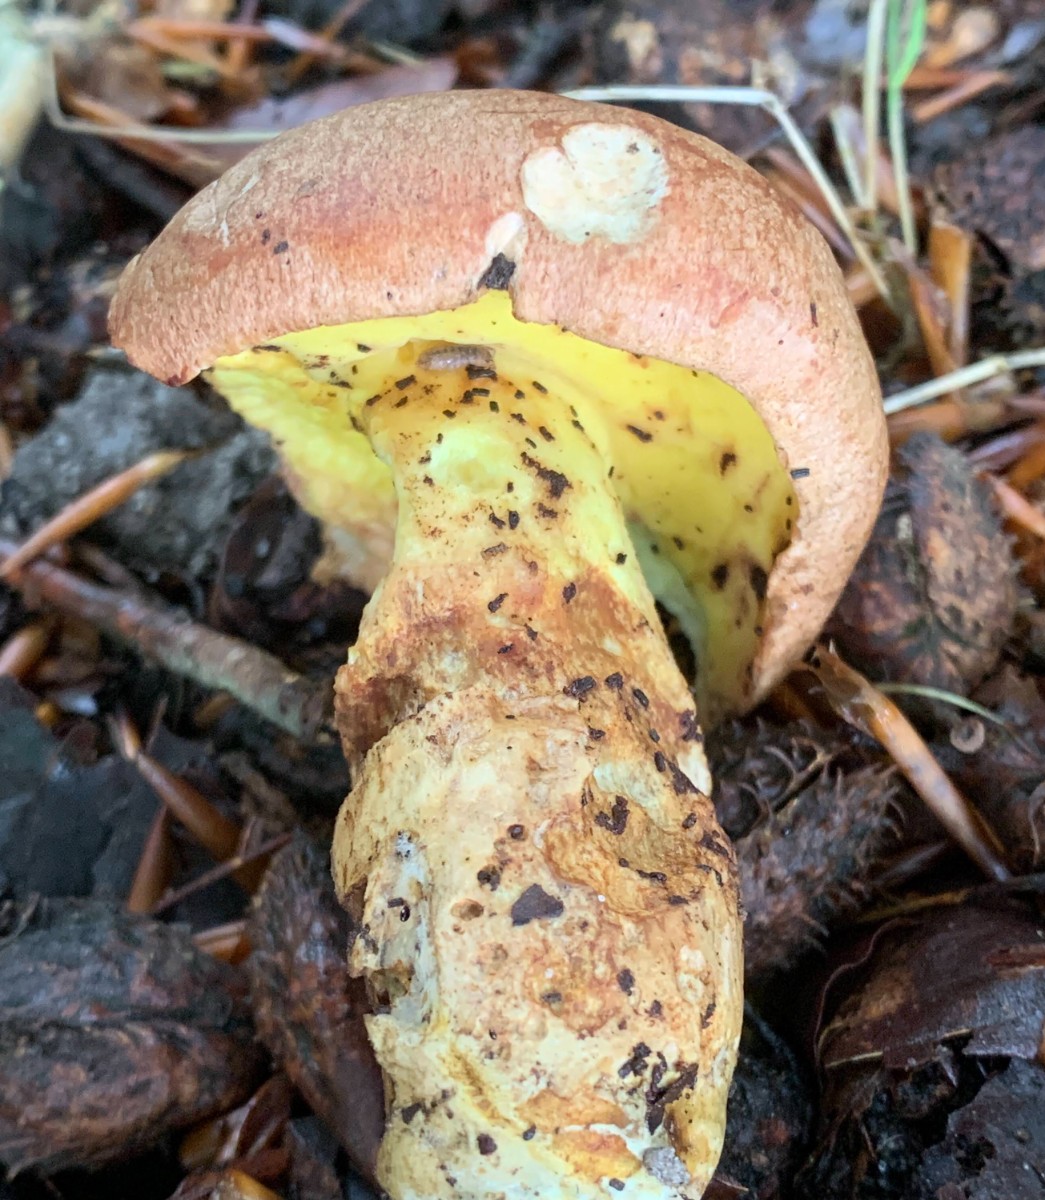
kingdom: Fungi
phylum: Basidiomycota
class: Agaricomycetes
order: Boletales
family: Boletaceae
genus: Butyriboletus
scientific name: Butyriboletus appendiculatus
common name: tenstokket rørhat
